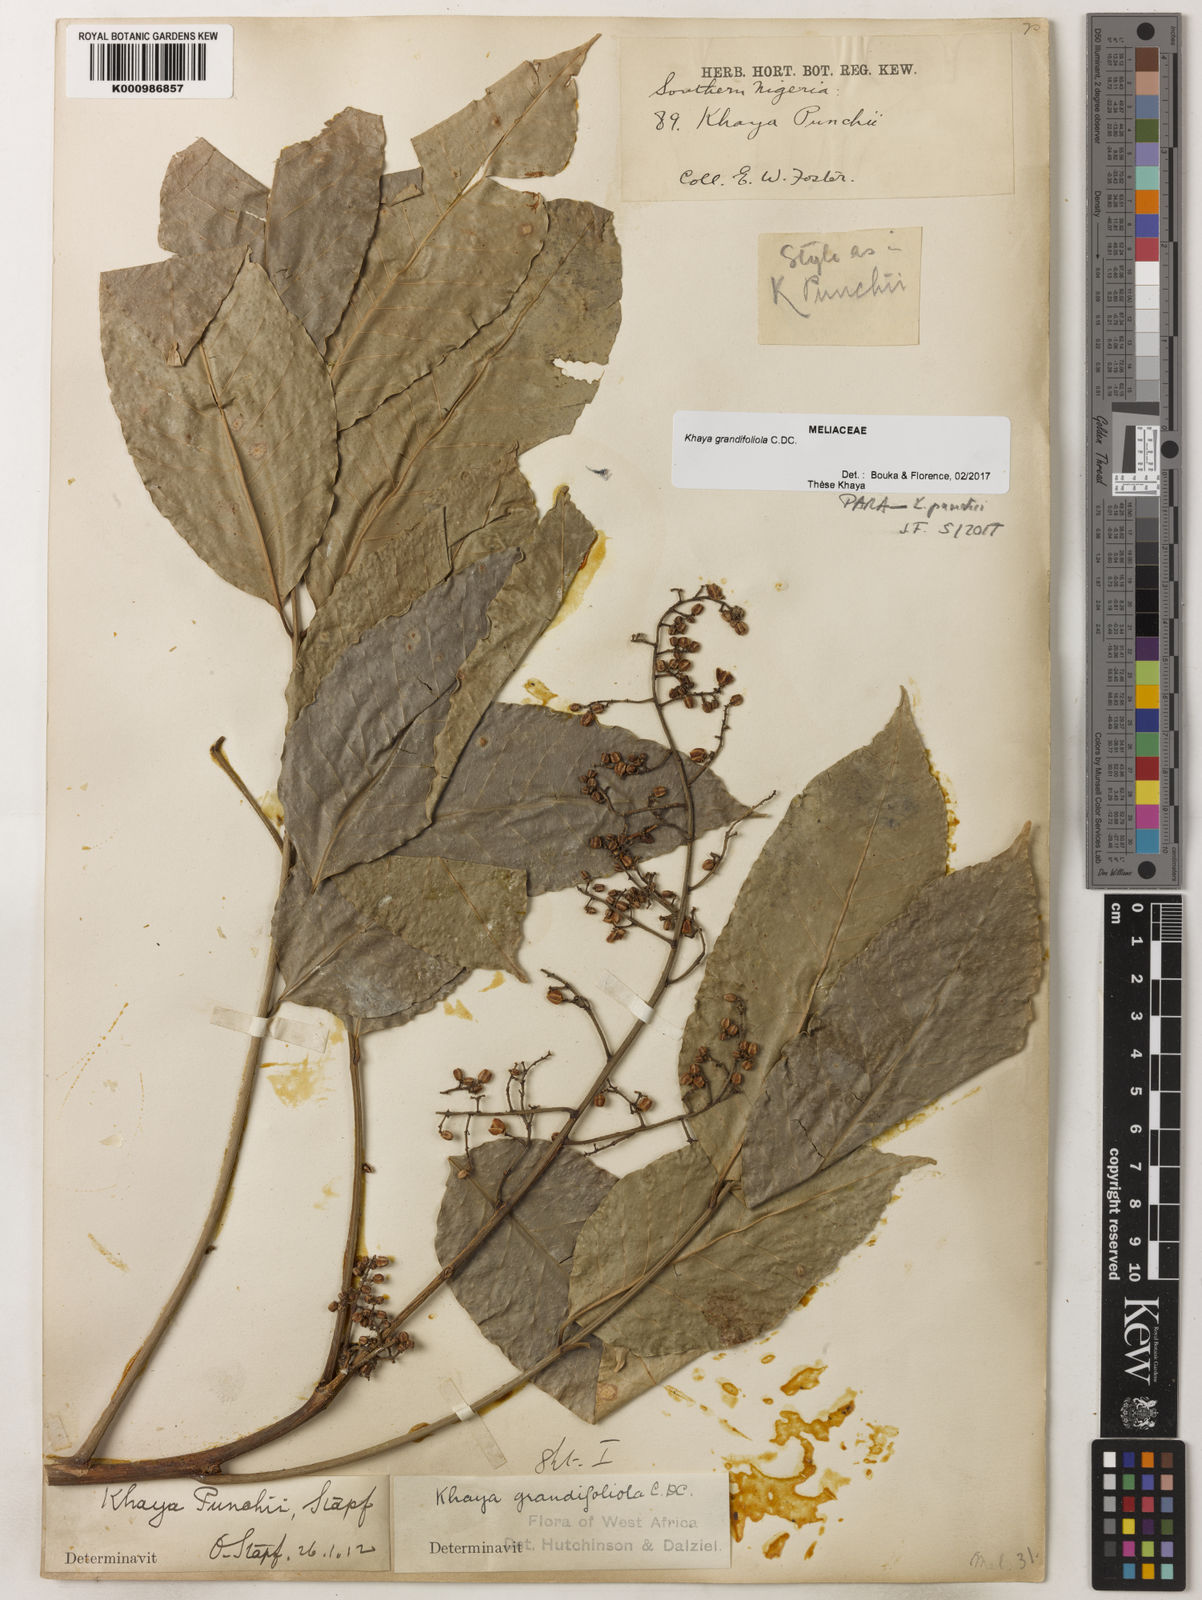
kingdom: Plantae
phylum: Tracheophyta
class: Magnoliopsida
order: Sapindales
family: Meliaceae
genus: Khaya
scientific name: Khaya
